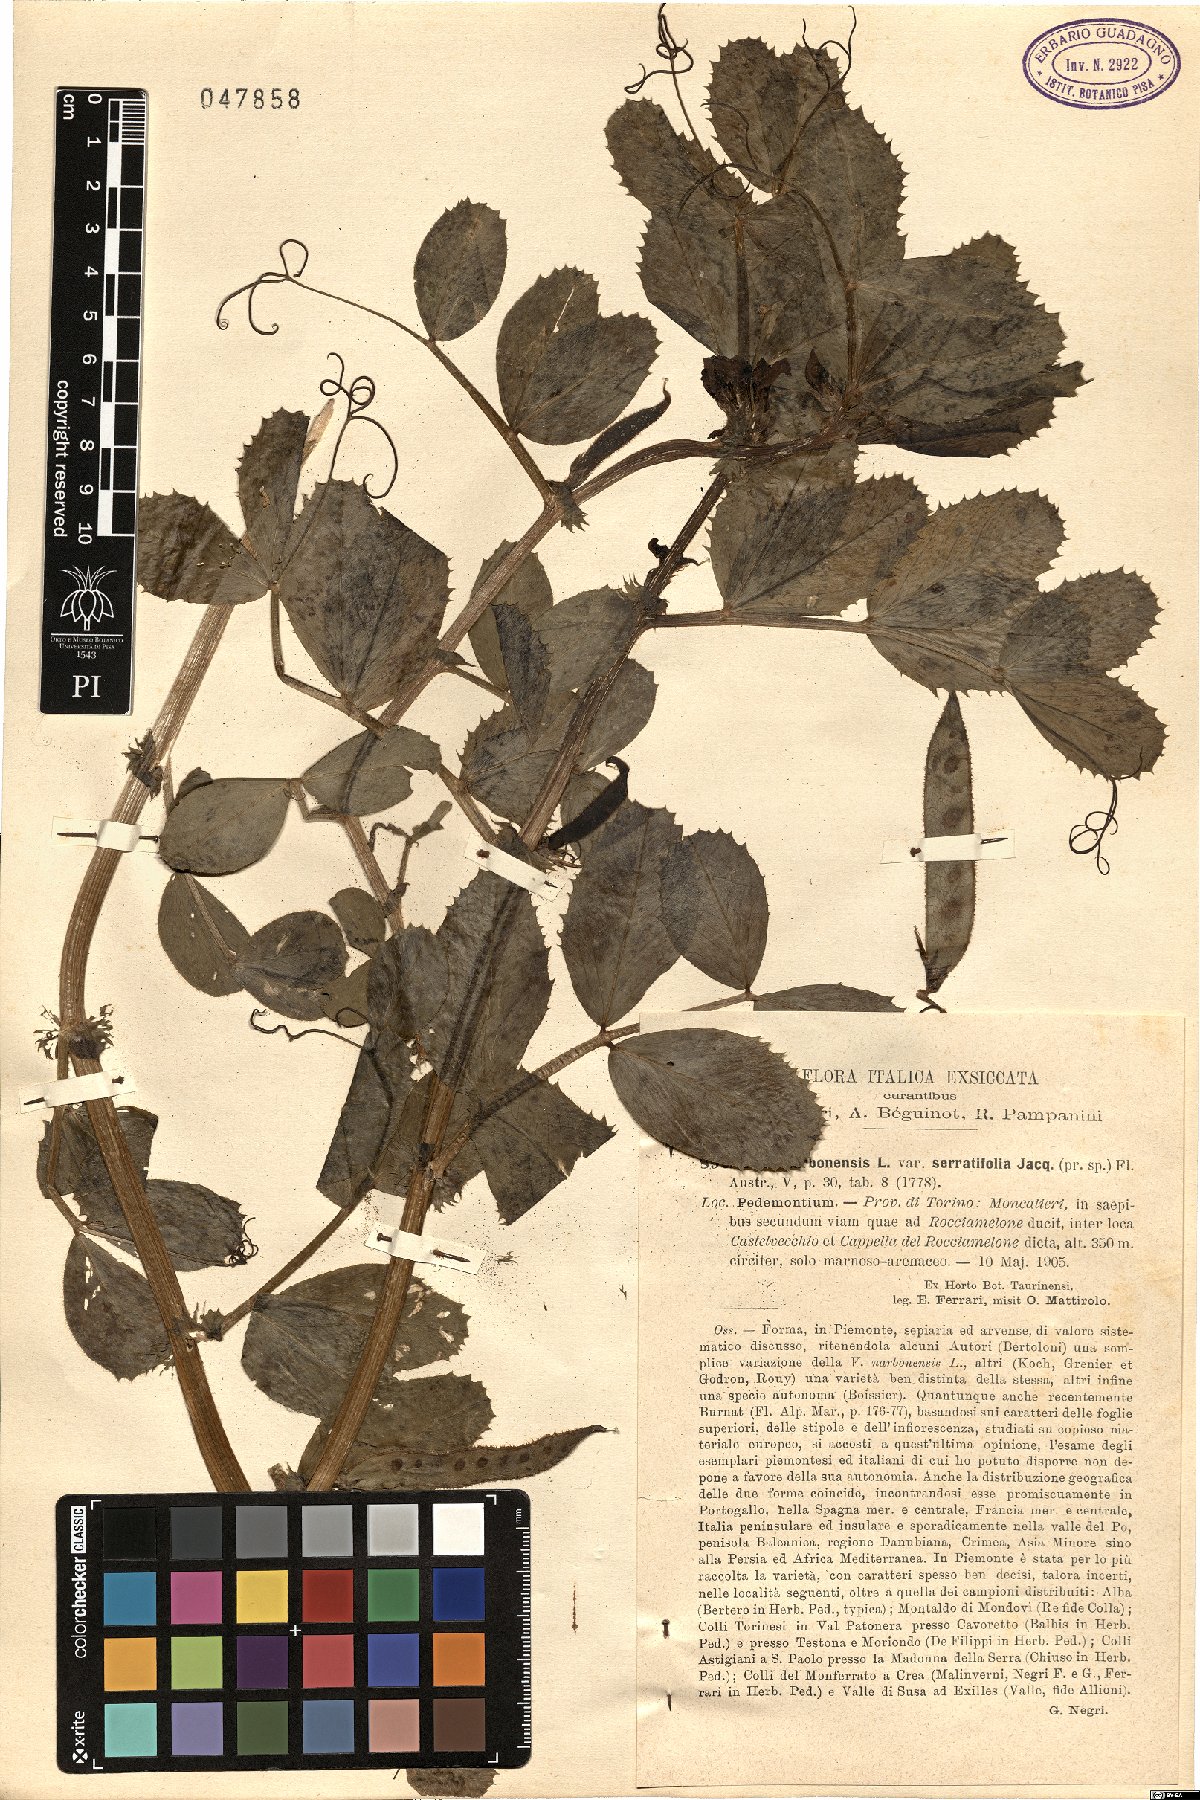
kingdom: Plantae
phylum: Tracheophyta
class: Magnoliopsida
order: Fabales
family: Fabaceae
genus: Vicia
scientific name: Vicia serratifolia
